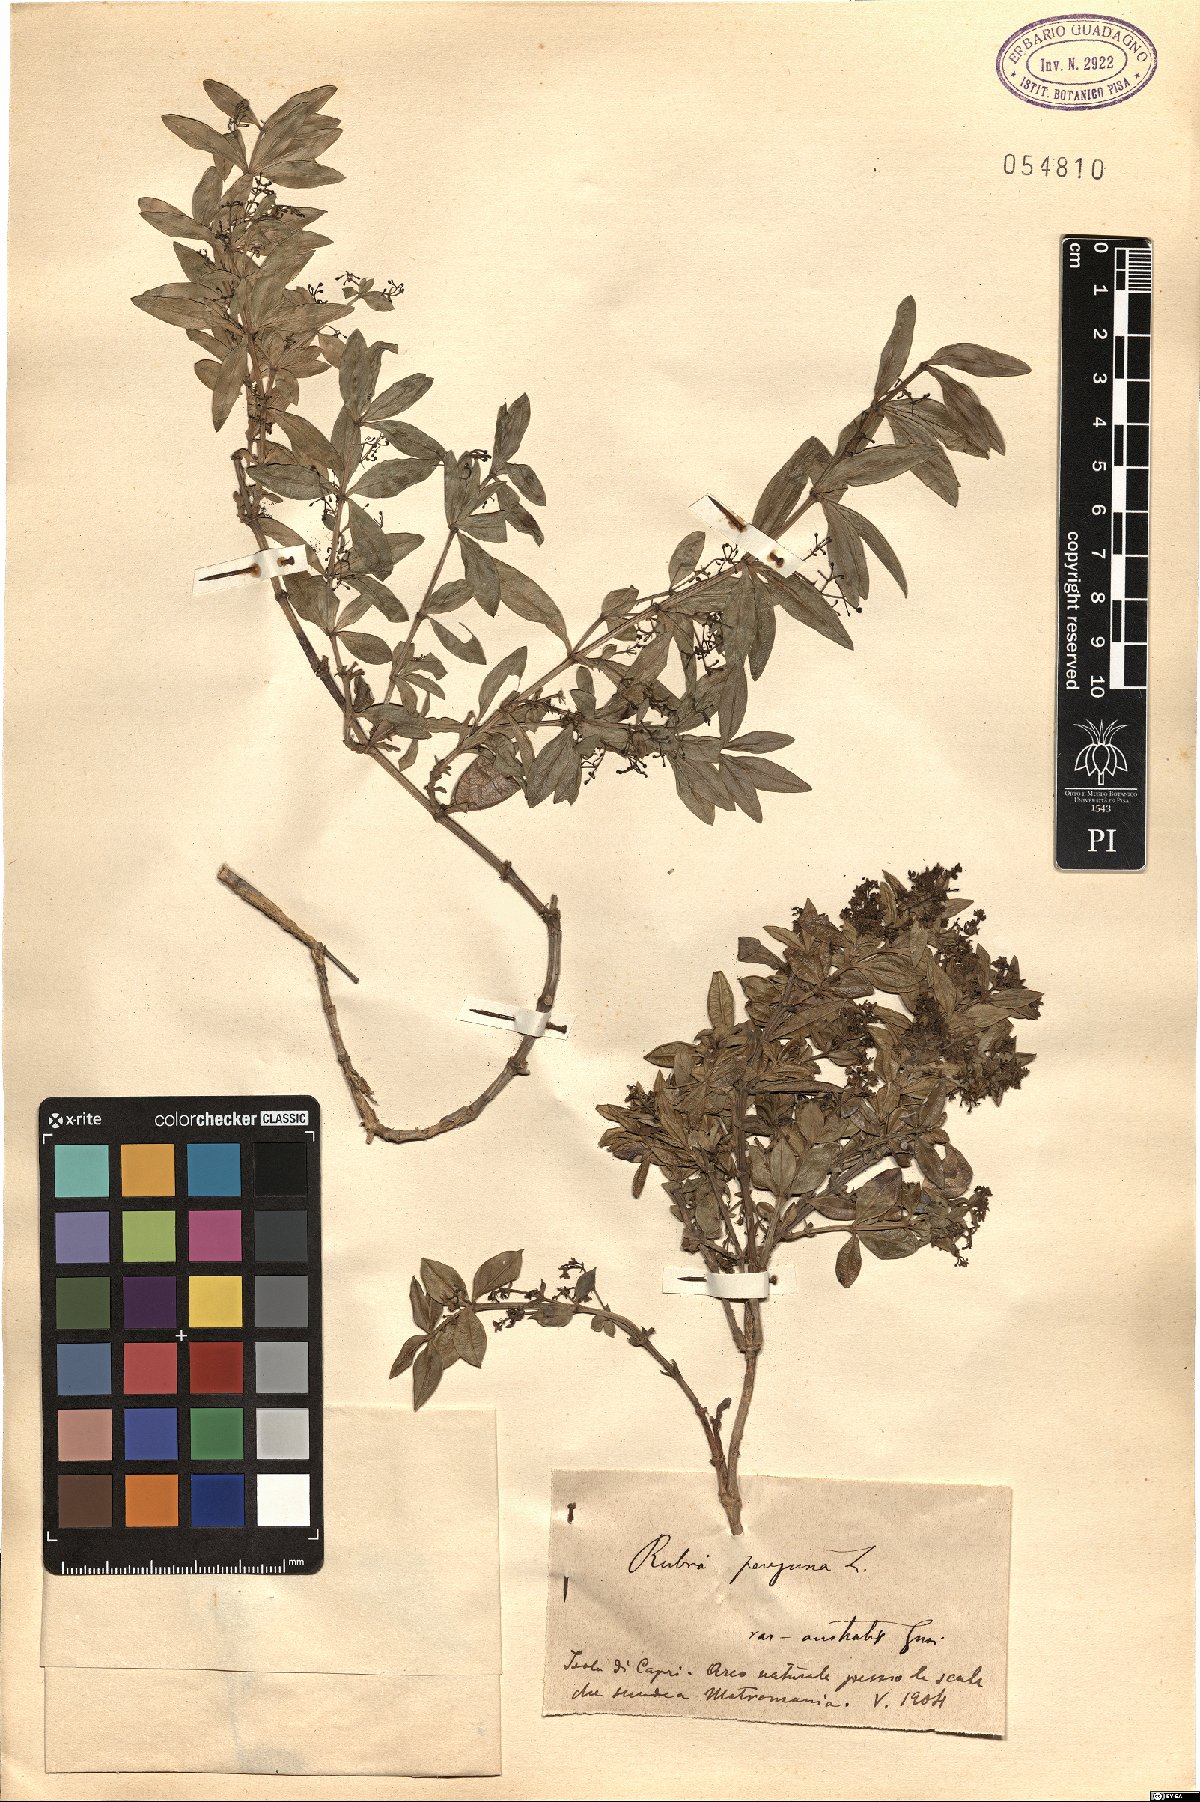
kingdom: Plantae
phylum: Tracheophyta
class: Magnoliopsida
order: Gentianales
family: Rubiaceae
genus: Rubia
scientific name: Rubia peregrina
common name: Wild madder
